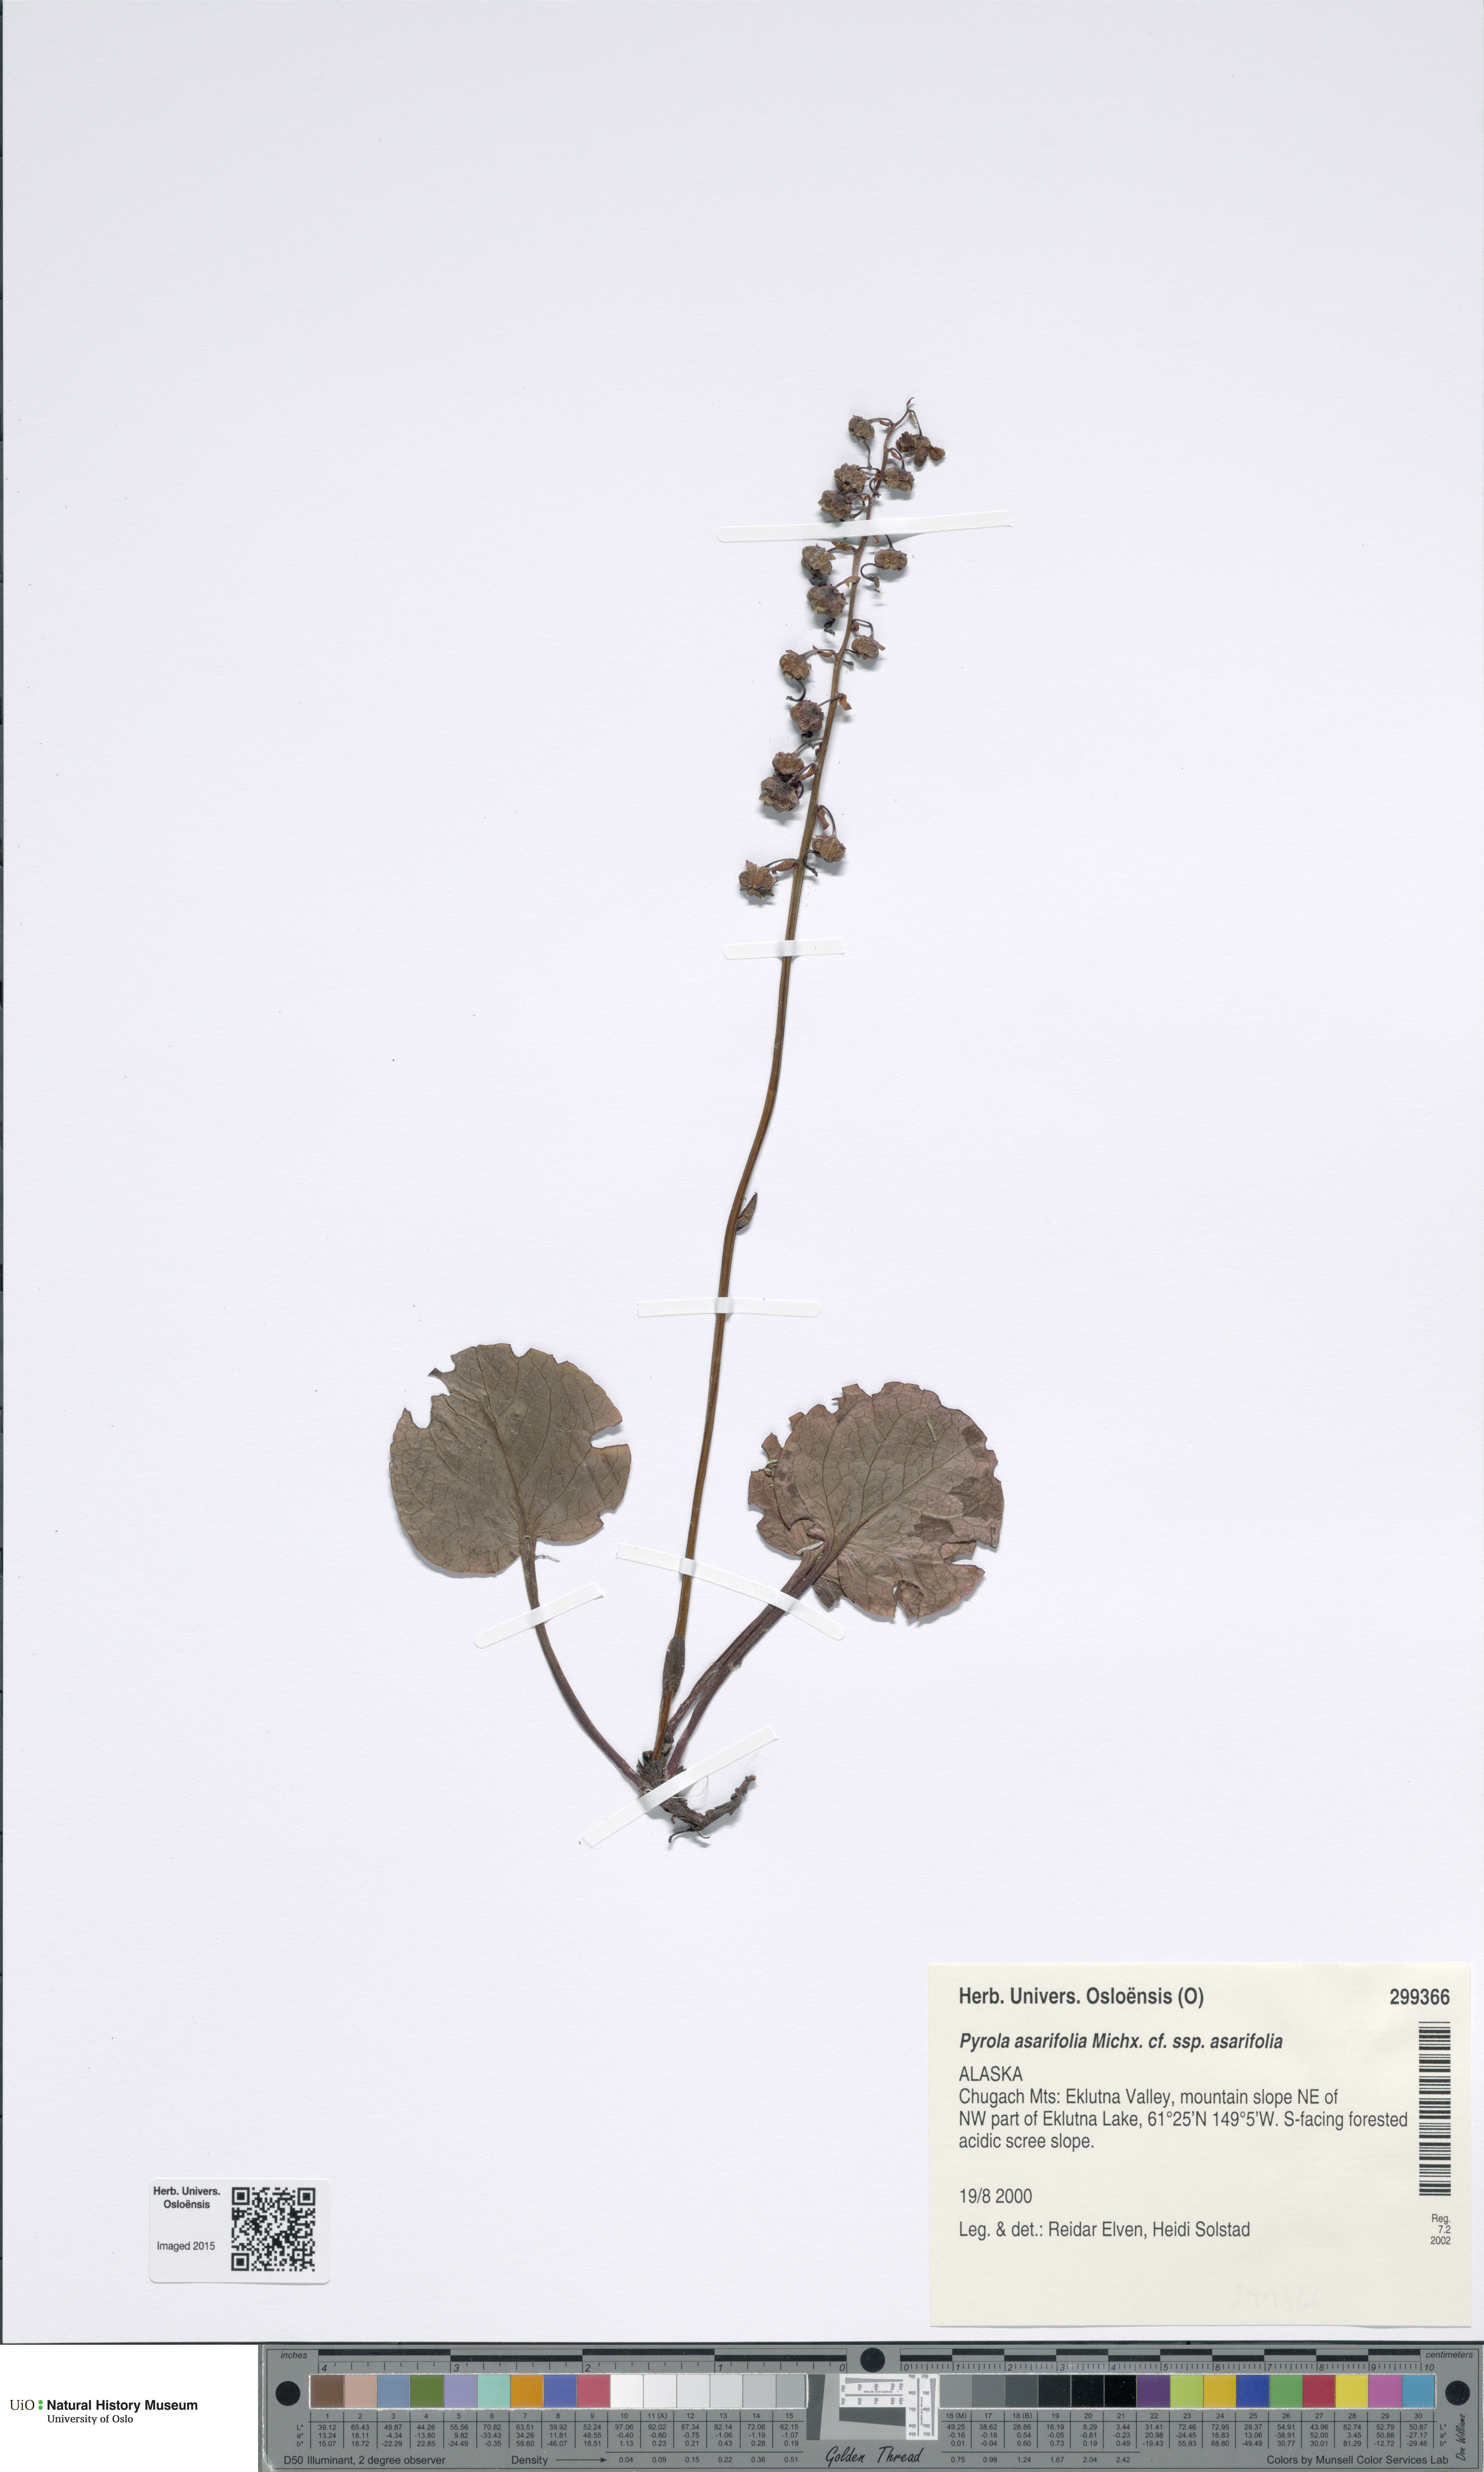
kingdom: Plantae
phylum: Tracheophyta
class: Magnoliopsida
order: Ericales
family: Ericaceae
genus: Pyrola
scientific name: Pyrola asarifolia
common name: Bog wintergreen
